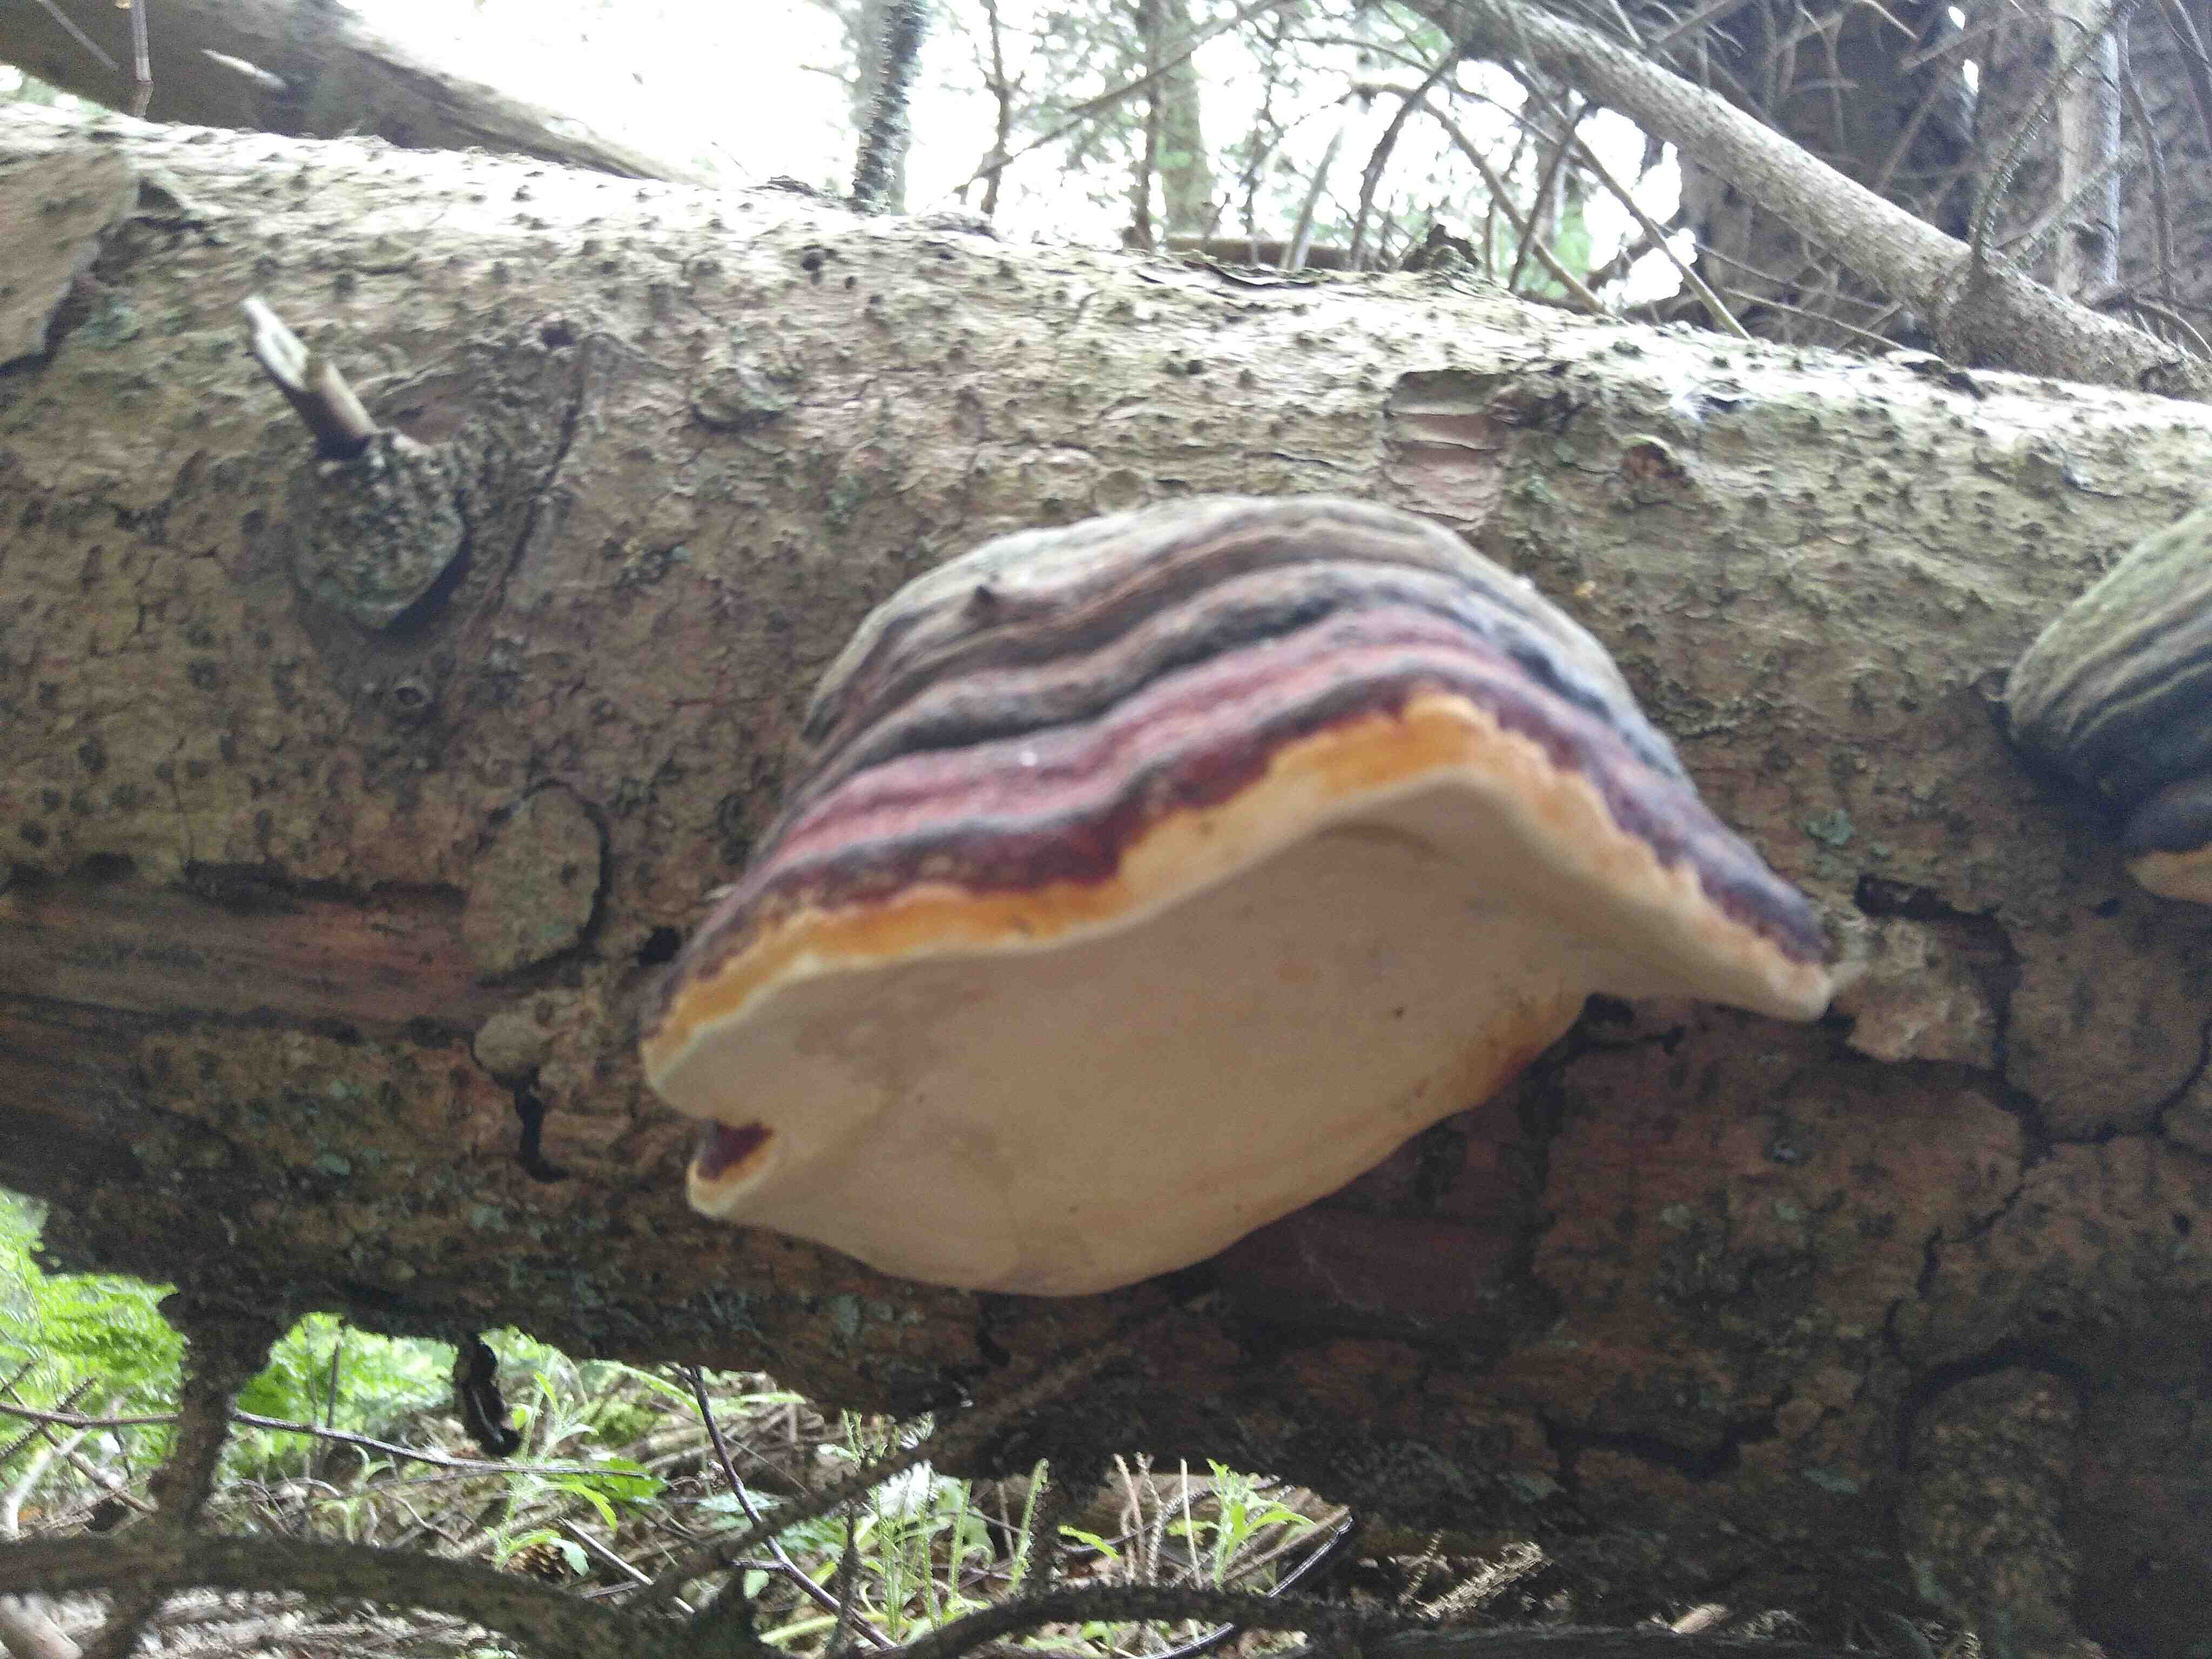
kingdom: Fungi
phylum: Basidiomycota
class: Agaricomycetes
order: Polyporales
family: Fomitopsidaceae
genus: Fomitopsis
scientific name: Fomitopsis pinicola
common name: randbæltet hovporesvamp
